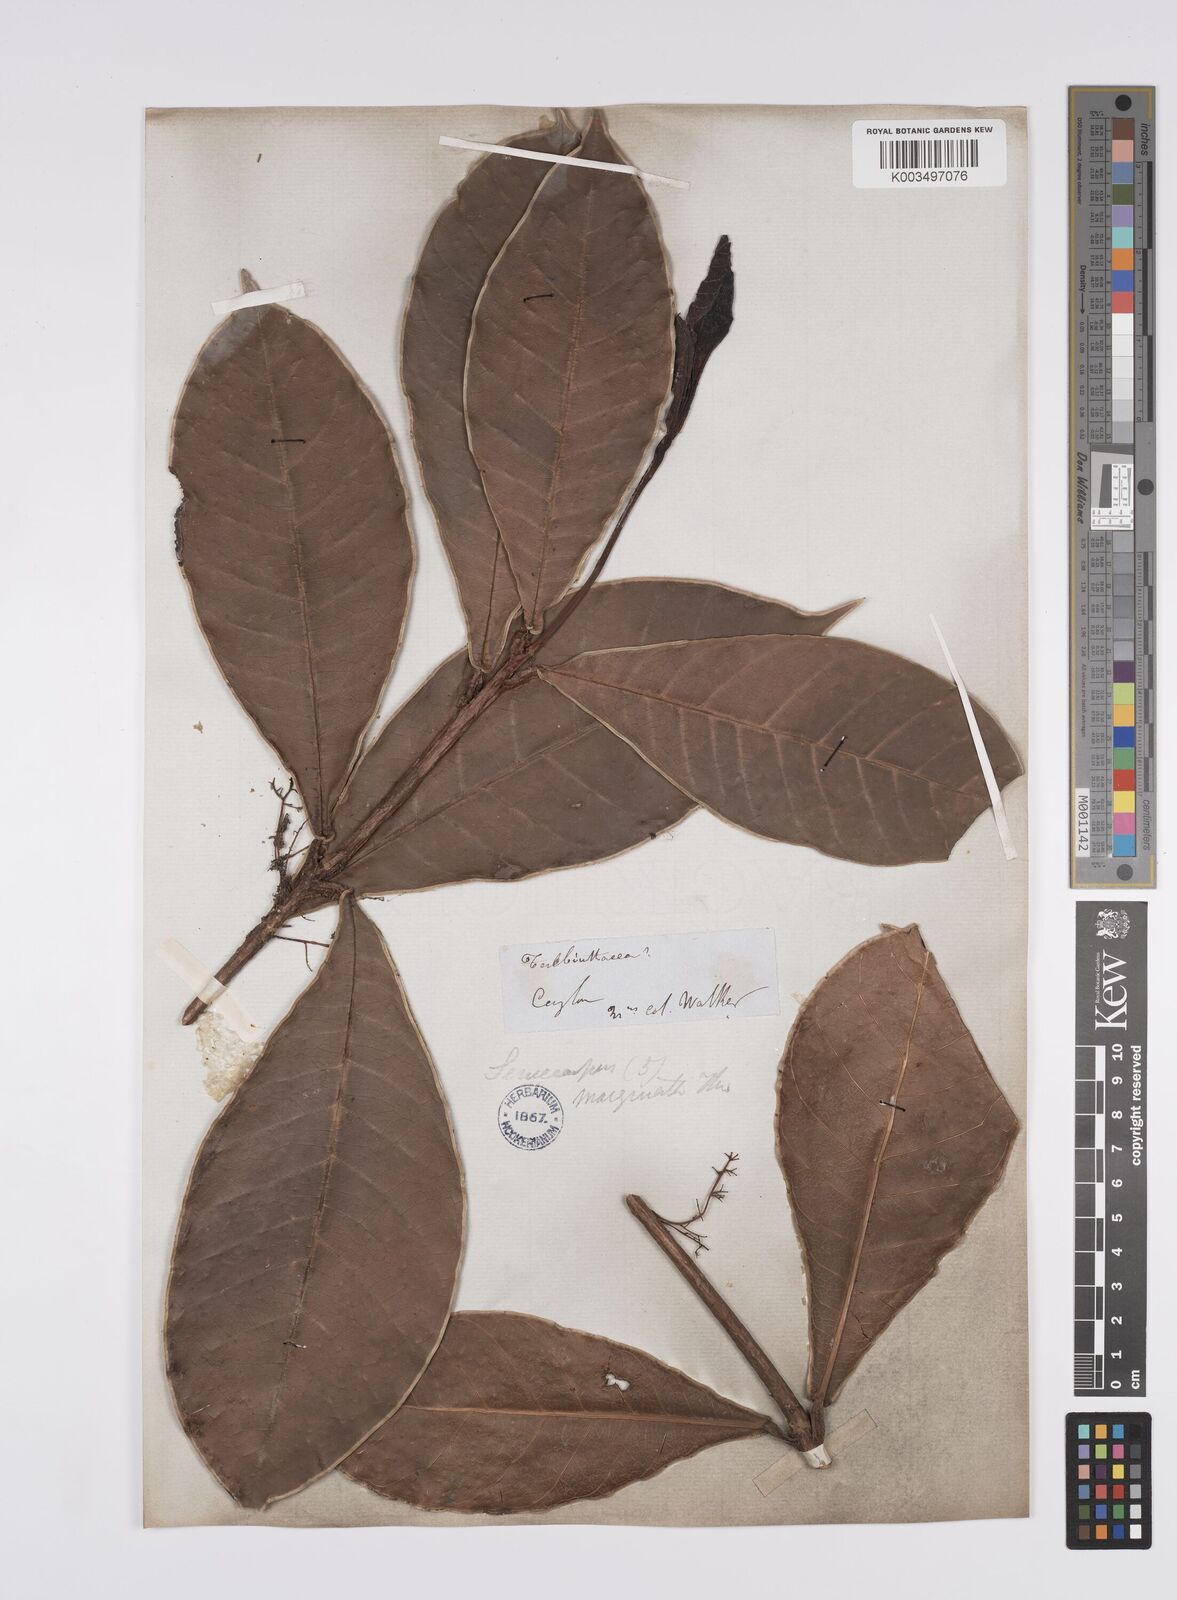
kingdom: Plantae
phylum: Tracheophyta
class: Magnoliopsida
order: Sapindales
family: Anacardiaceae
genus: Semecarpus
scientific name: Semecarpus marginatus
